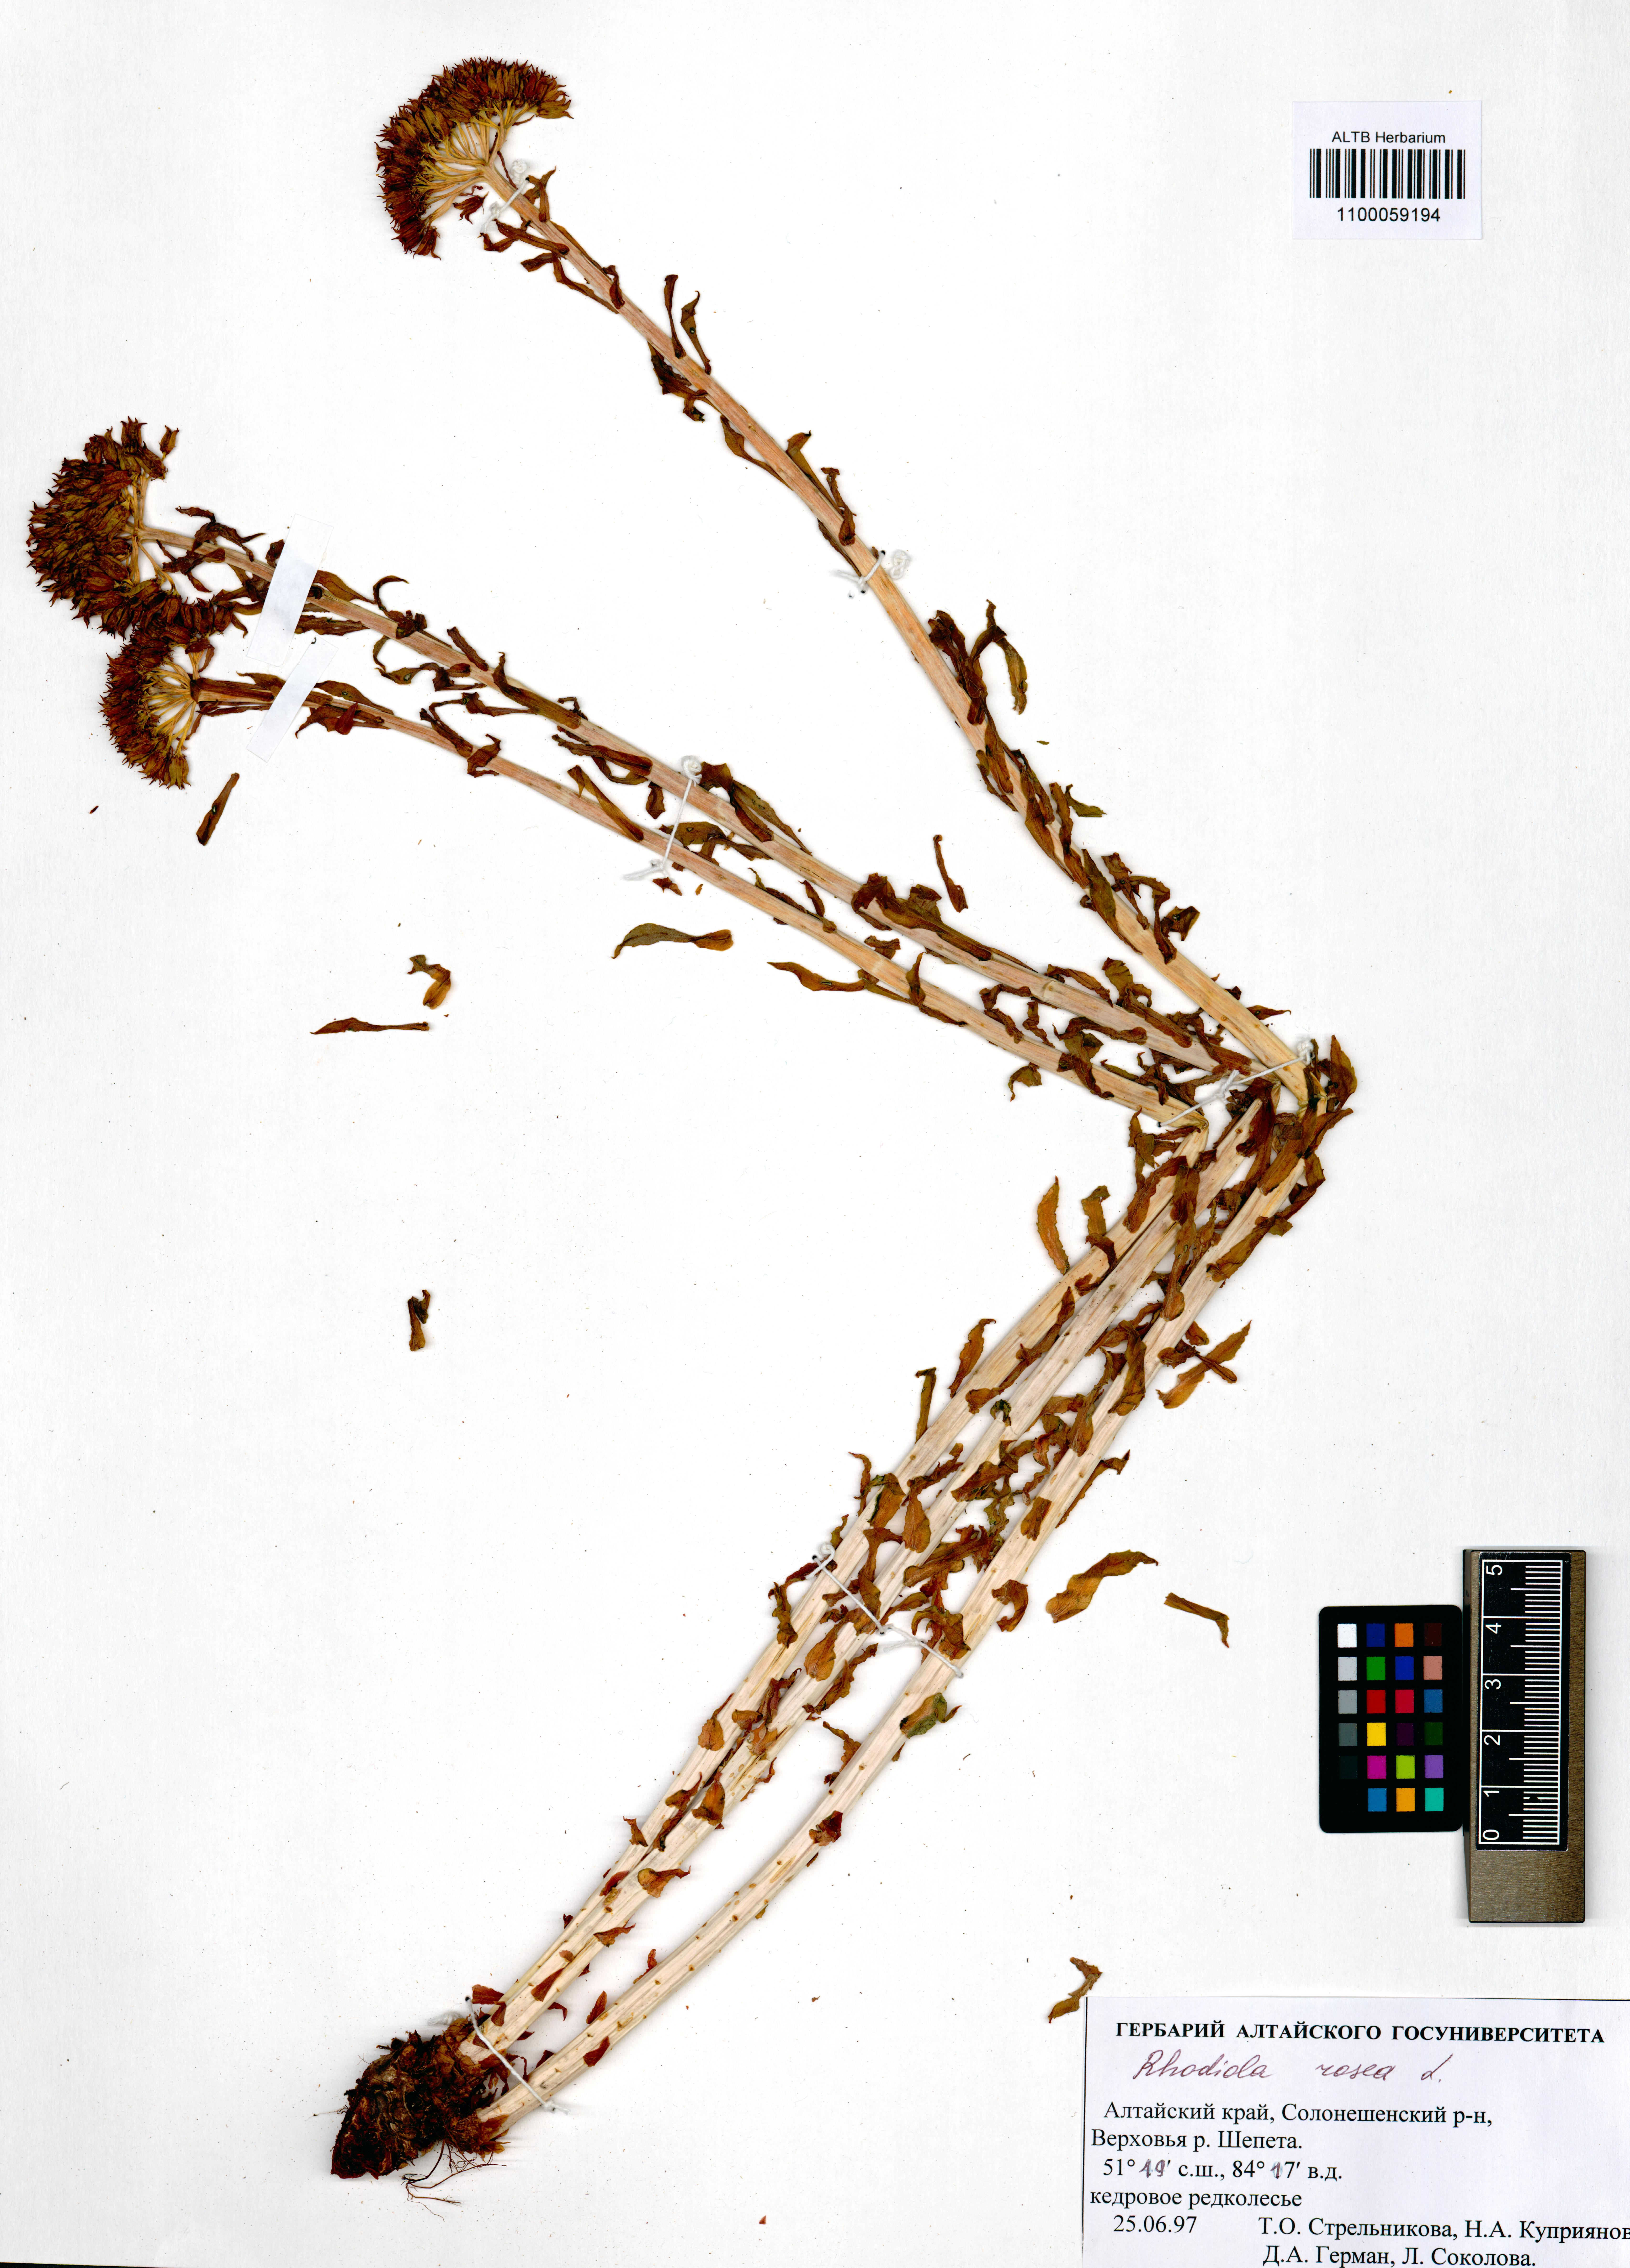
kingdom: Plantae
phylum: Tracheophyta
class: Magnoliopsida
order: Saxifragales
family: Crassulaceae
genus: Rhodiola
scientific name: Rhodiola rosea
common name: Roseroot
